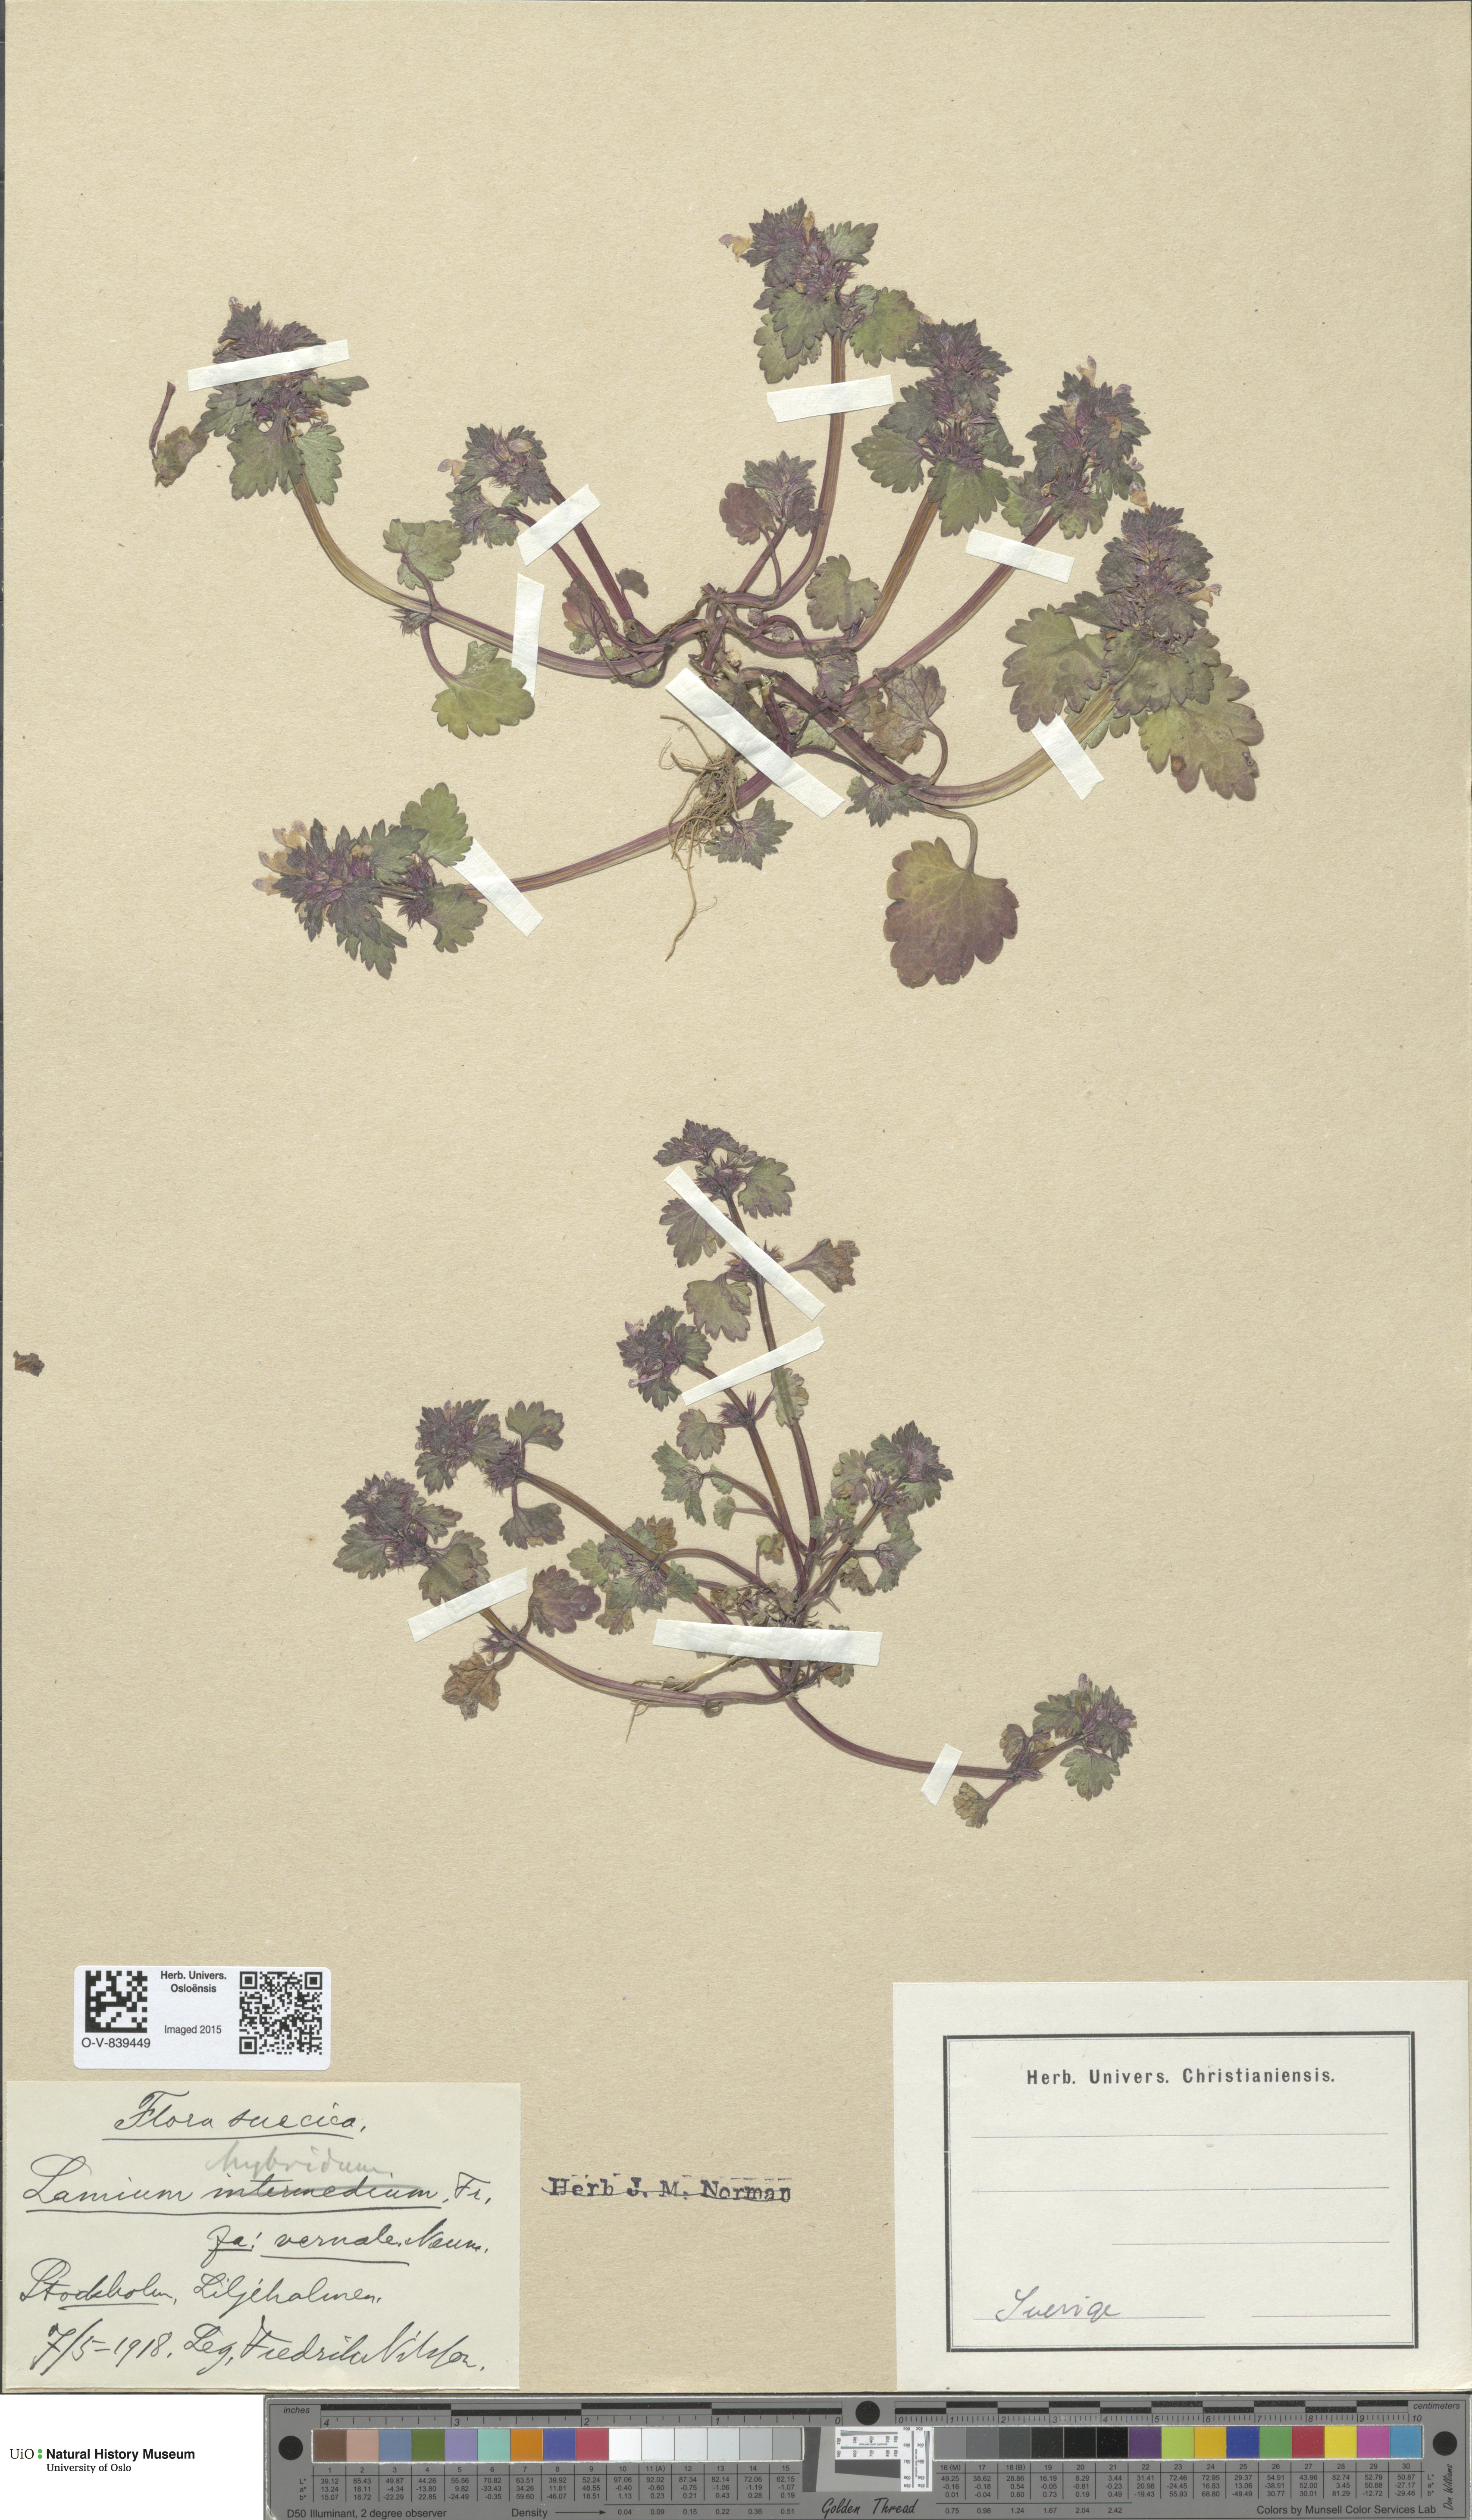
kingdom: Plantae
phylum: Tracheophyta
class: Magnoliopsida
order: Lamiales
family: Lamiaceae
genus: Lamium
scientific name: Lamium hybridum
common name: Cut-leaved dead-nettle
